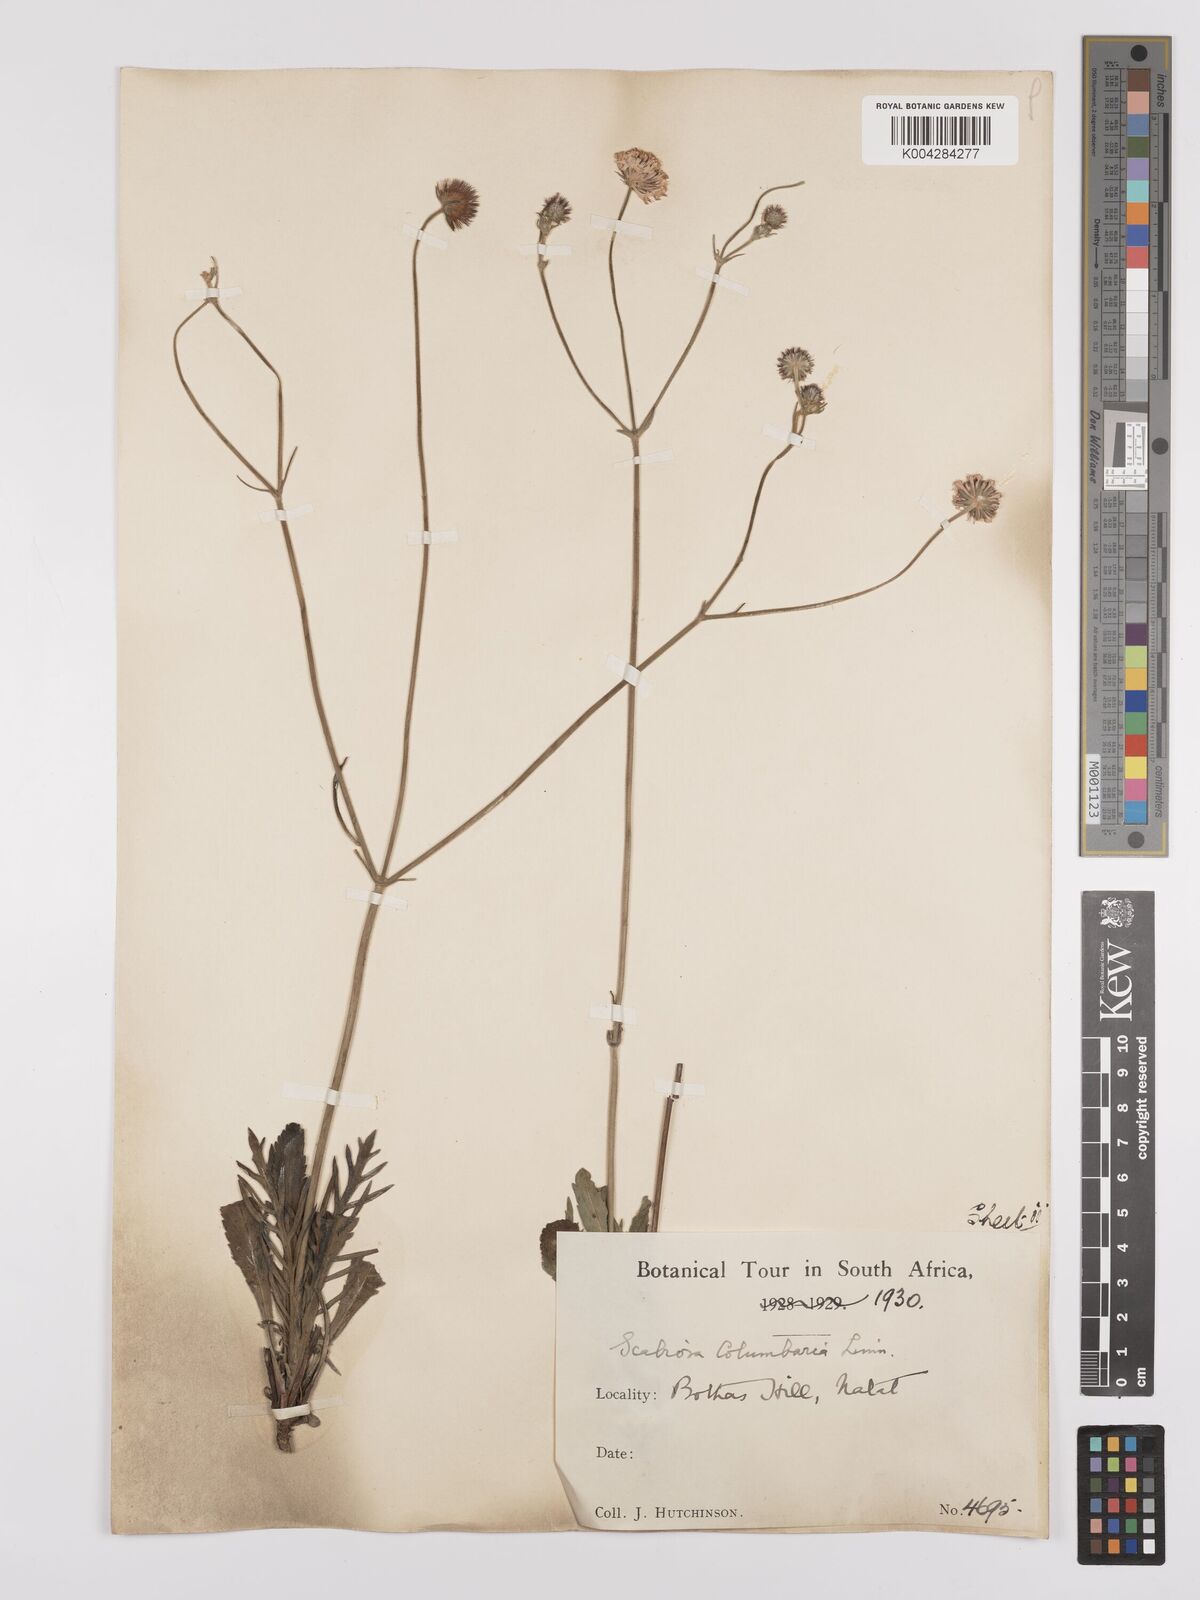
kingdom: Plantae
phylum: Tracheophyta
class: Magnoliopsida
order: Dipsacales
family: Caprifoliaceae
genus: Scabiosa
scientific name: Scabiosa columbaria
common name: Small scabious
